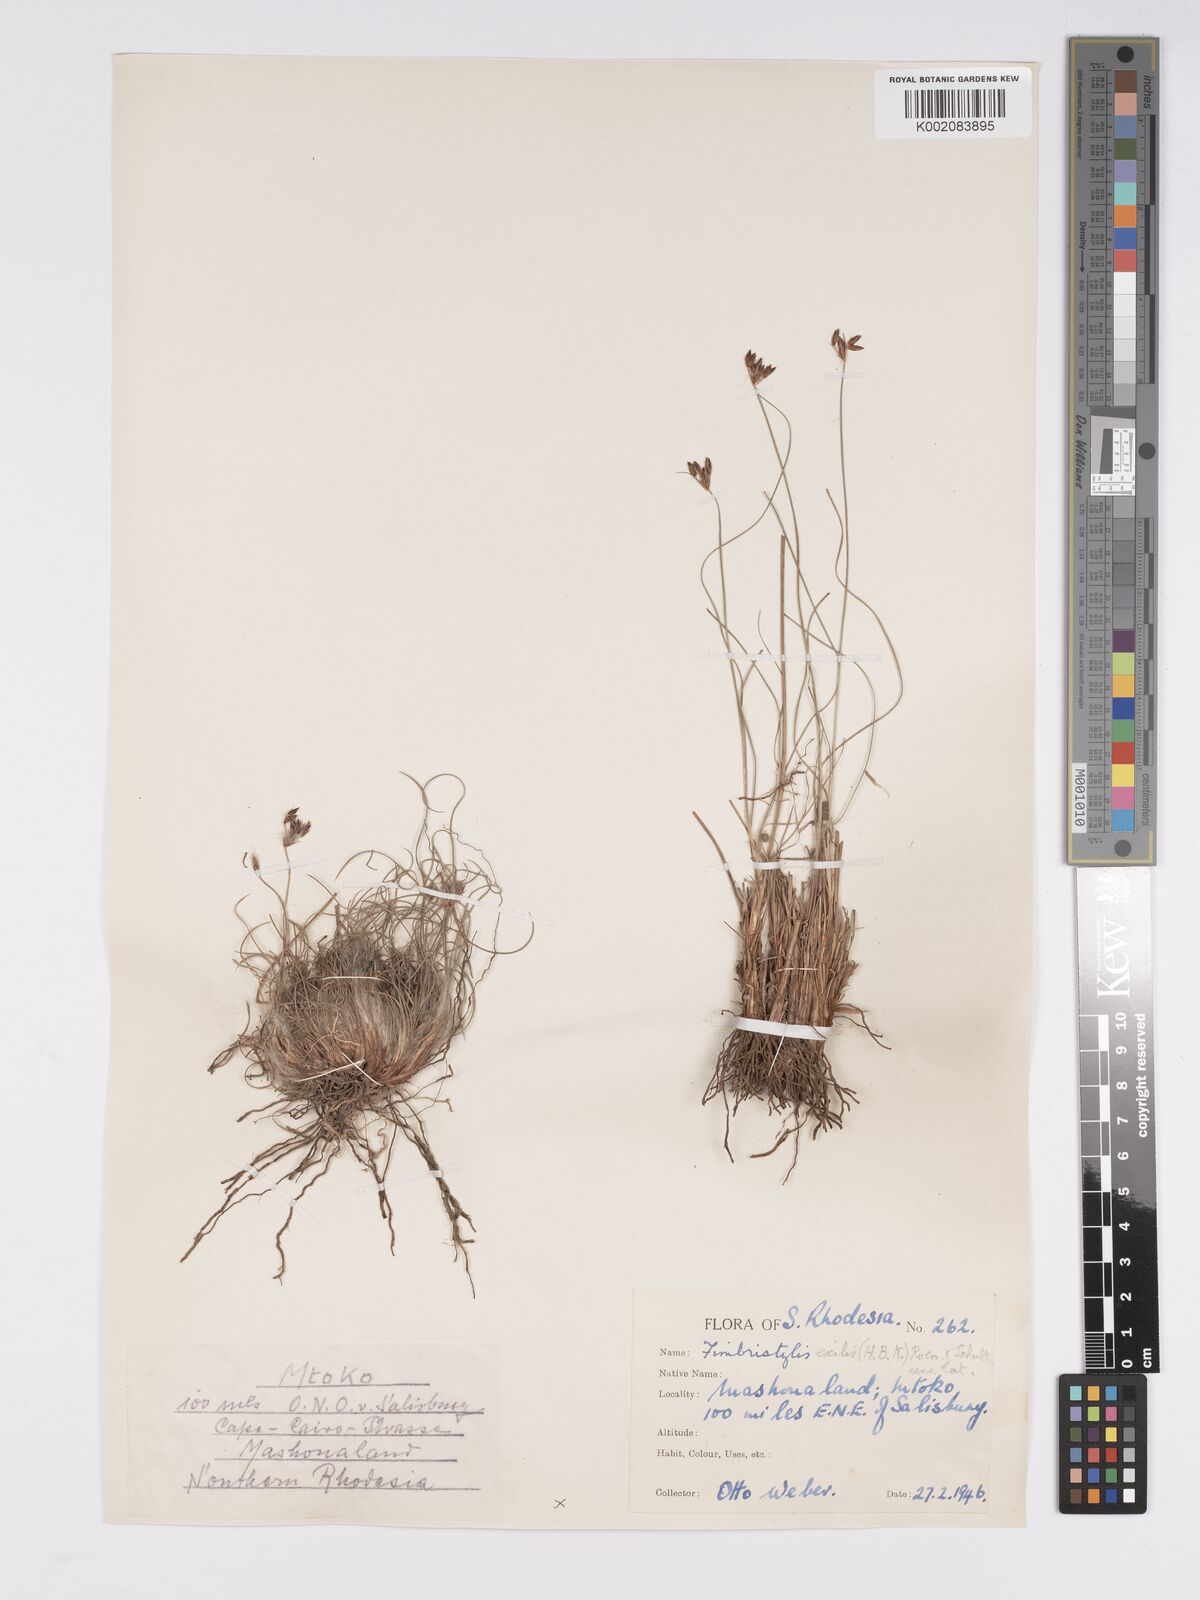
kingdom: Plantae
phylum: Tracheophyta
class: Liliopsida
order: Poales
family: Cyperaceae
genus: Bulbostylis
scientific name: Bulbostylis hispidula
